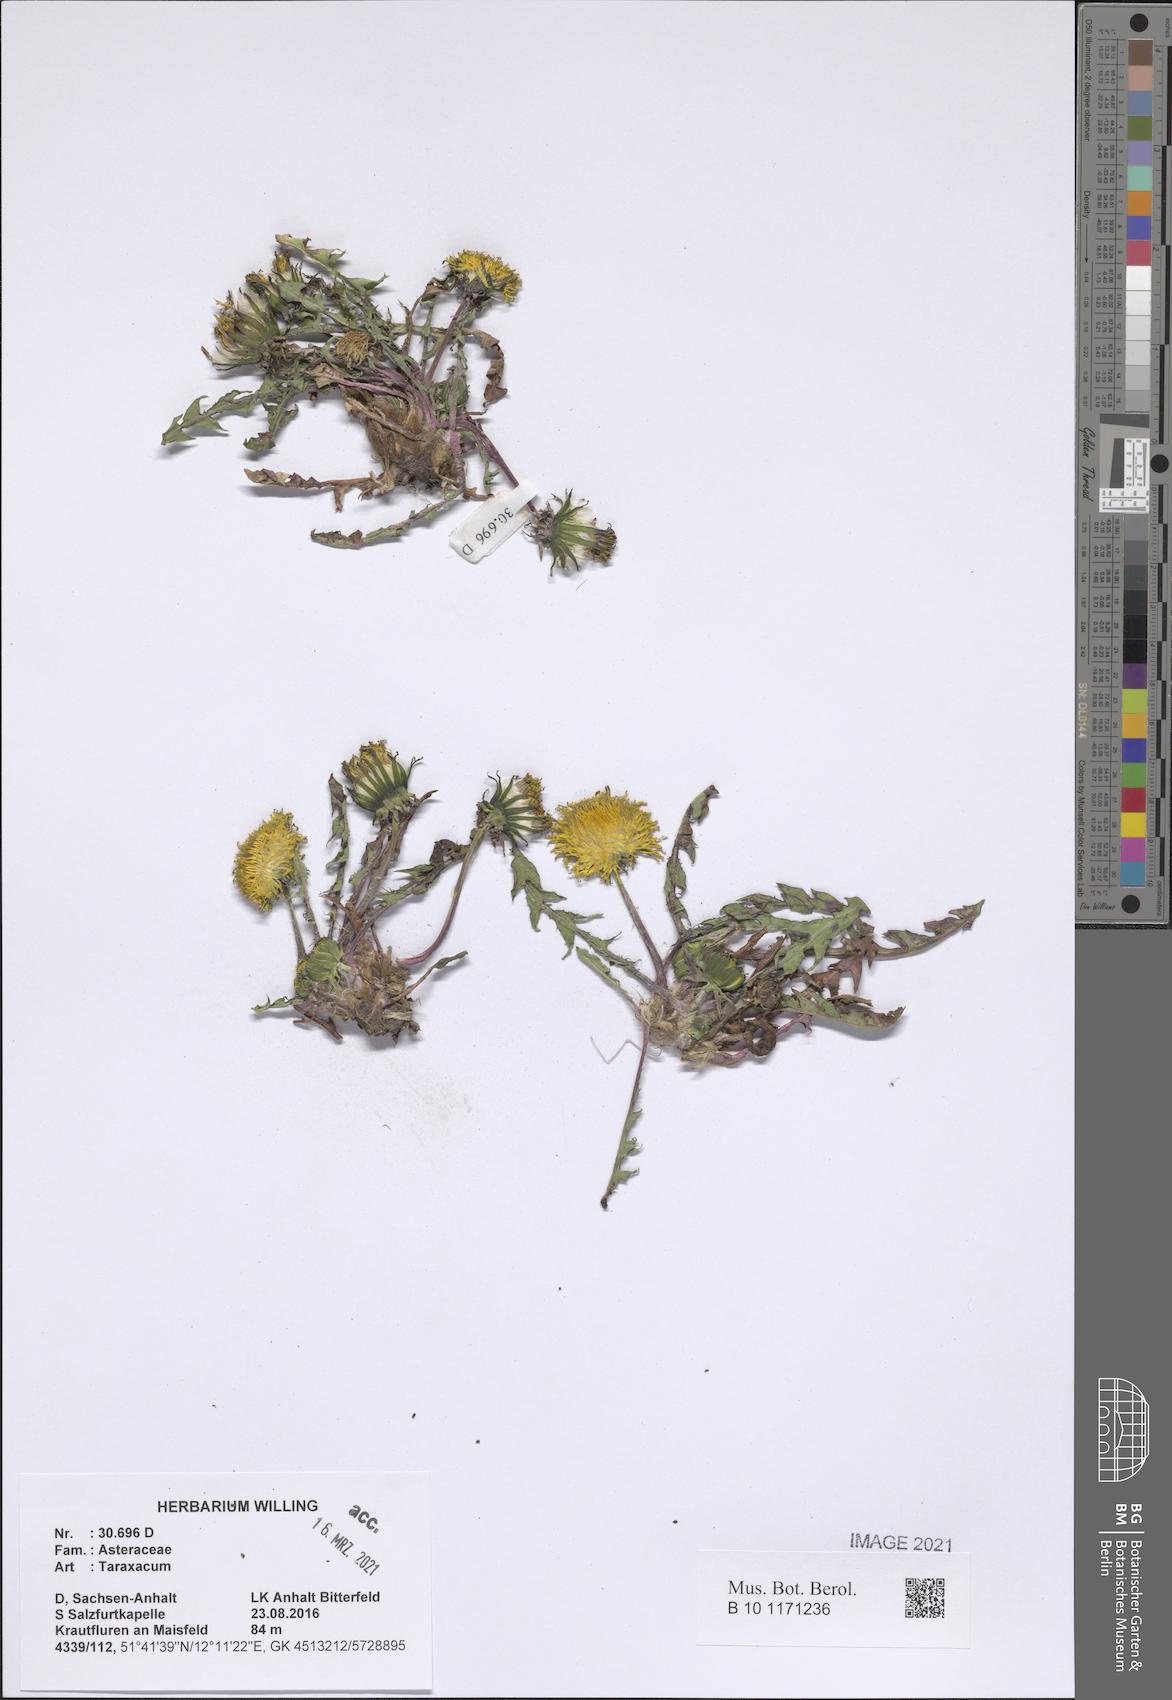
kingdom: Plantae
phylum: Tracheophyta
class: Magnoliopsida
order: Asterales
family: Asteraceae
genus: Taraxacum
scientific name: Taraxacum
